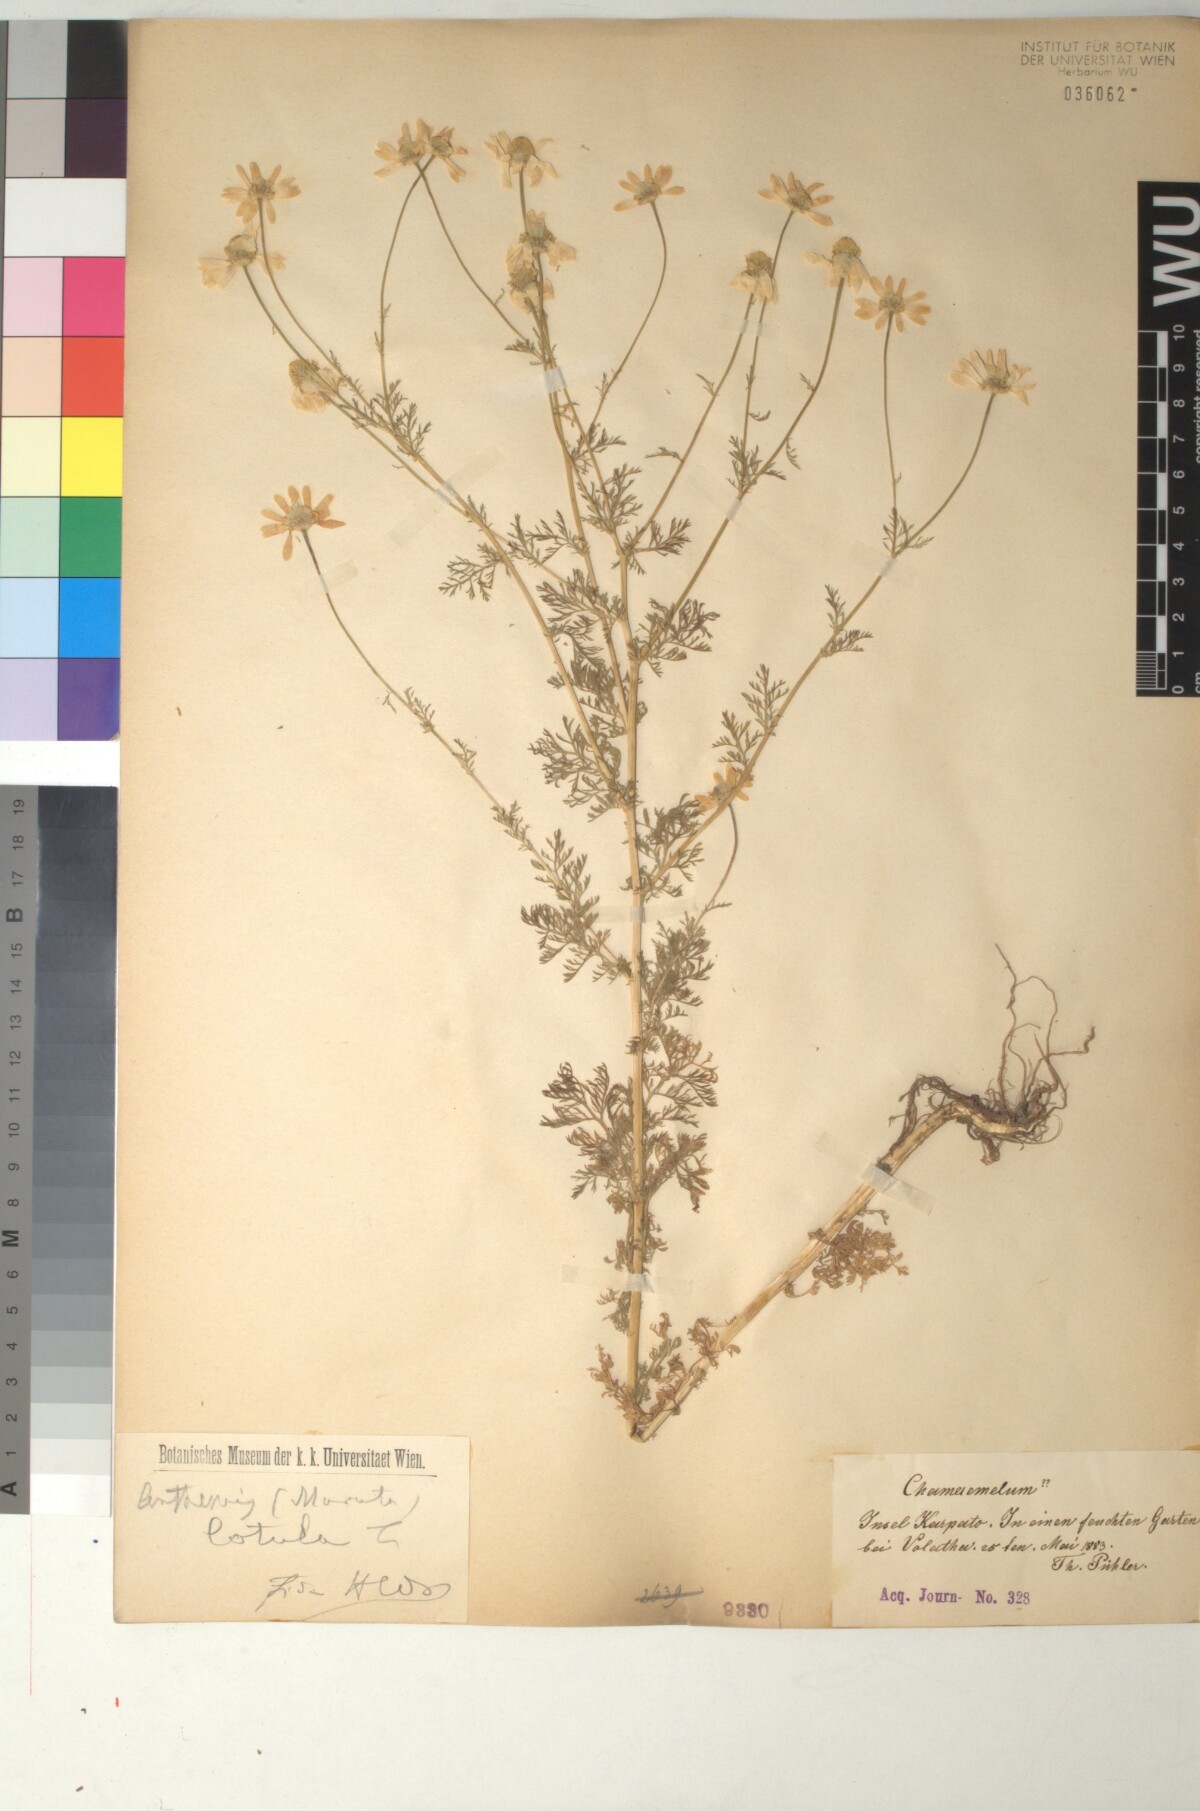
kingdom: Plantae
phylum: Tracheophyta
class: Magnoliopsida
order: Asterales
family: Asteraceae
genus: Anthemis
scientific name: Anthemis cotula
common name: Stinking chamomile
